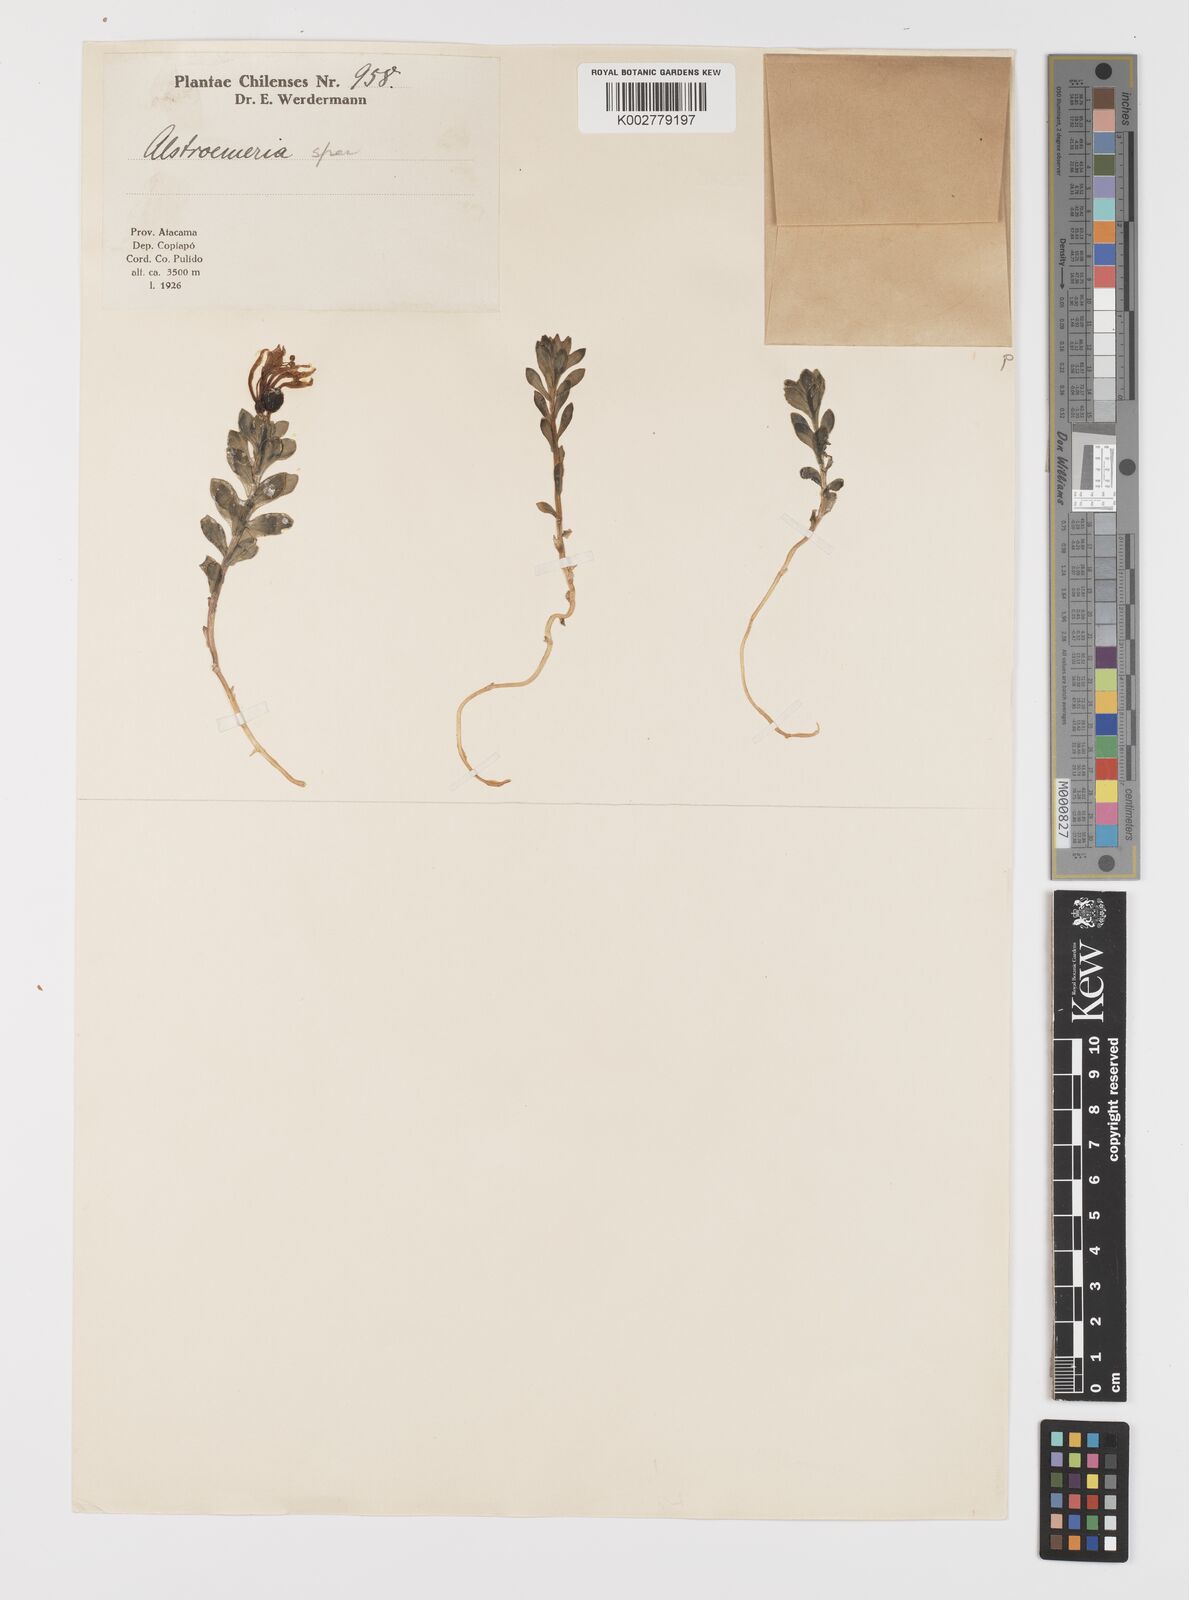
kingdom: Plantae
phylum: Tracheophyta
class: Liliopsida
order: Liliales
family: Alstroemeriaceae
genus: Alstroemeria
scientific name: Alstroemeria andina
